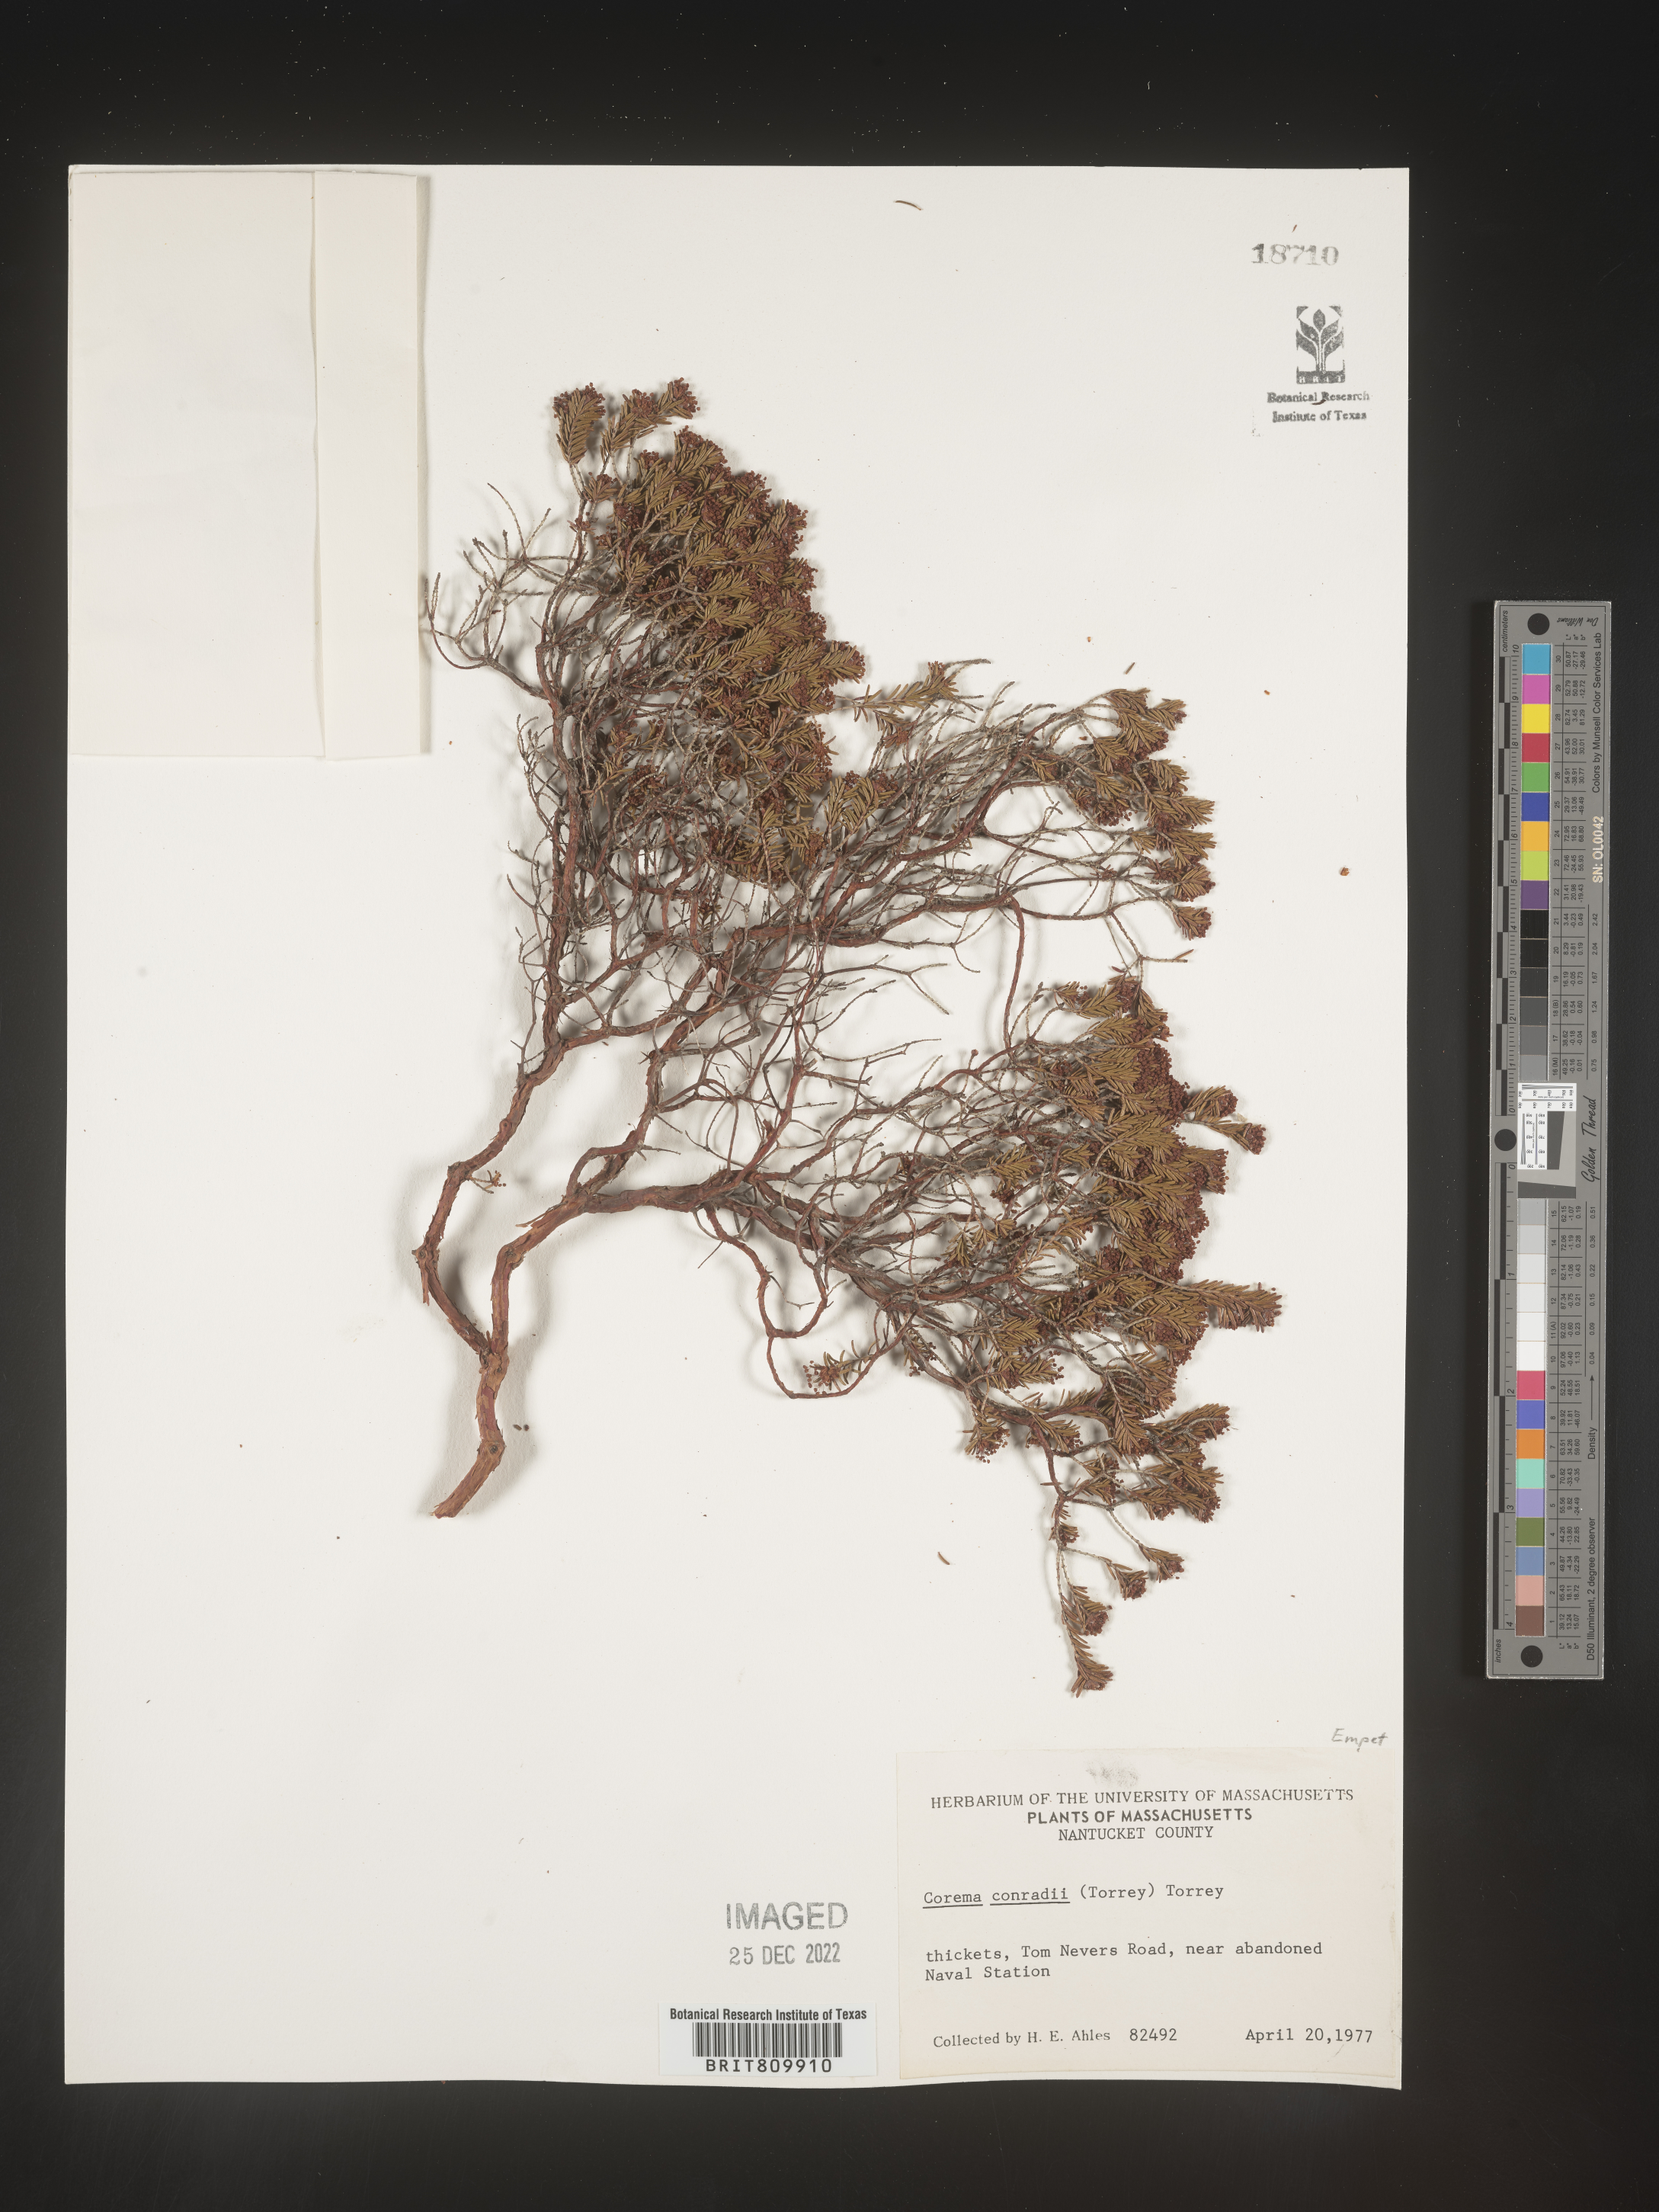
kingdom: Plantae
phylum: Tracheophyta
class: Magnoliopsida
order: Ericales
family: Ericaceae
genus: Corema
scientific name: Corema
